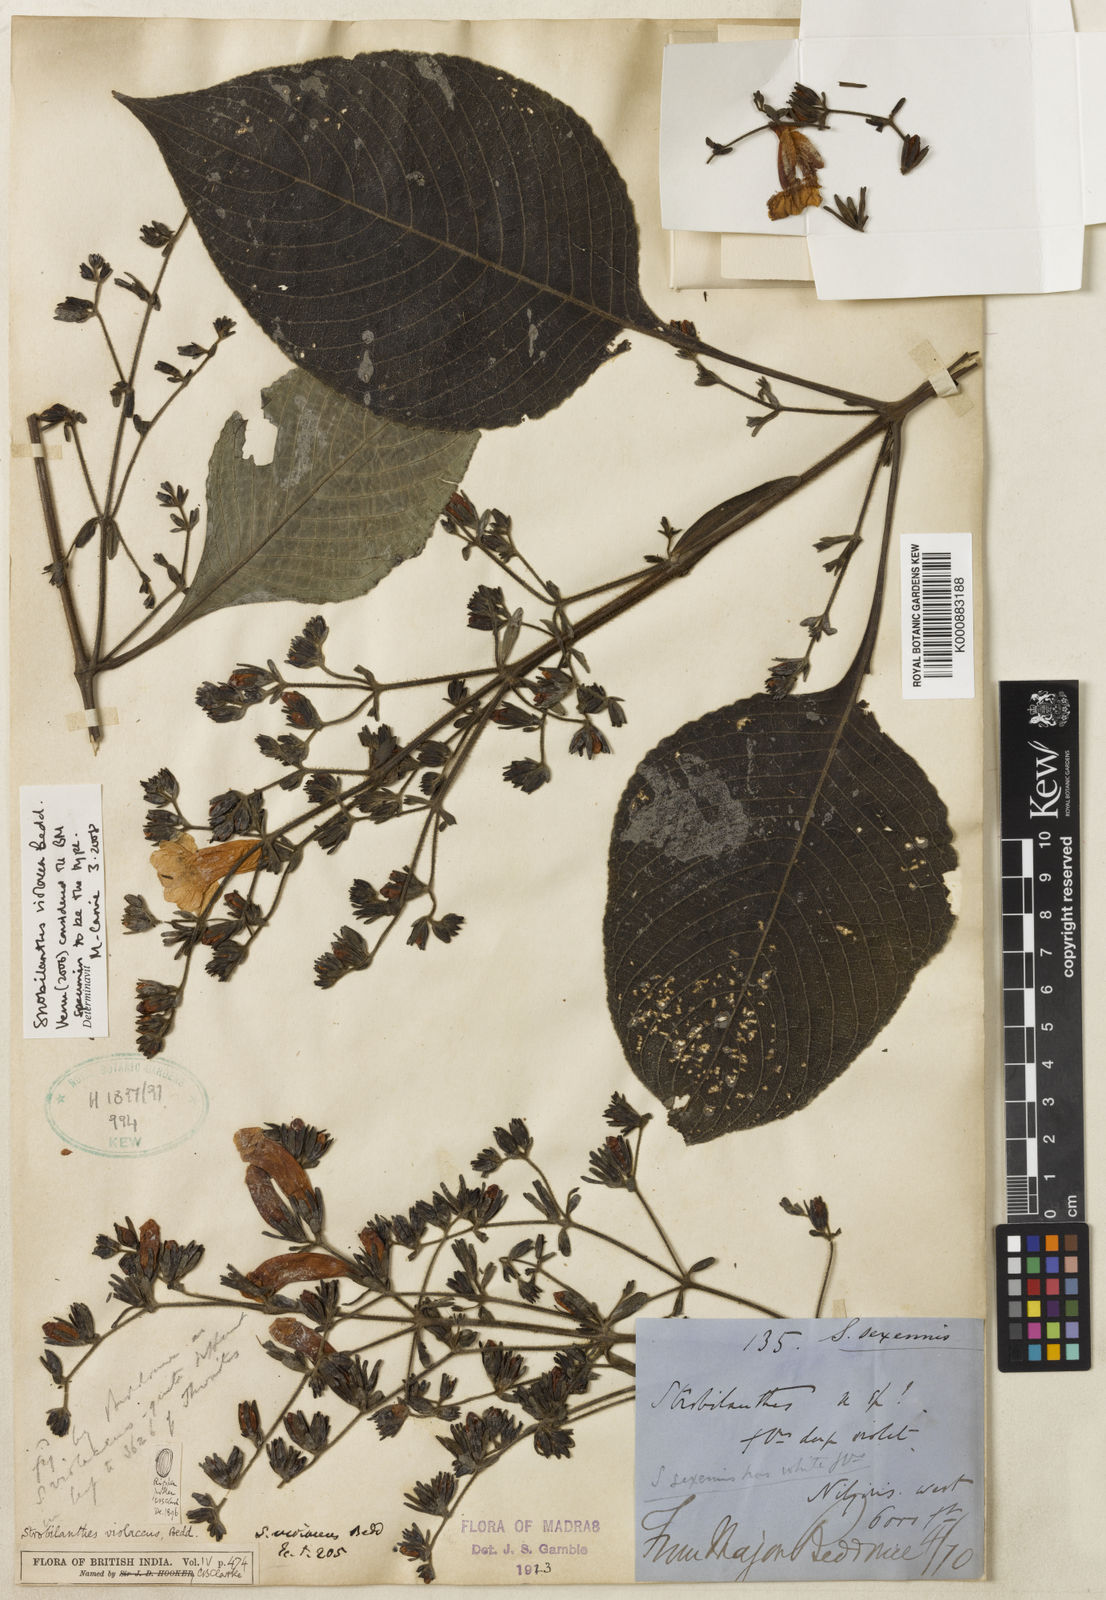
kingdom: Plantae
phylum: Tracheophyta
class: Magnoliopsida
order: Lamiales
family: Acanthaceae
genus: Strobilanthes
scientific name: Strobilanthes violacea
